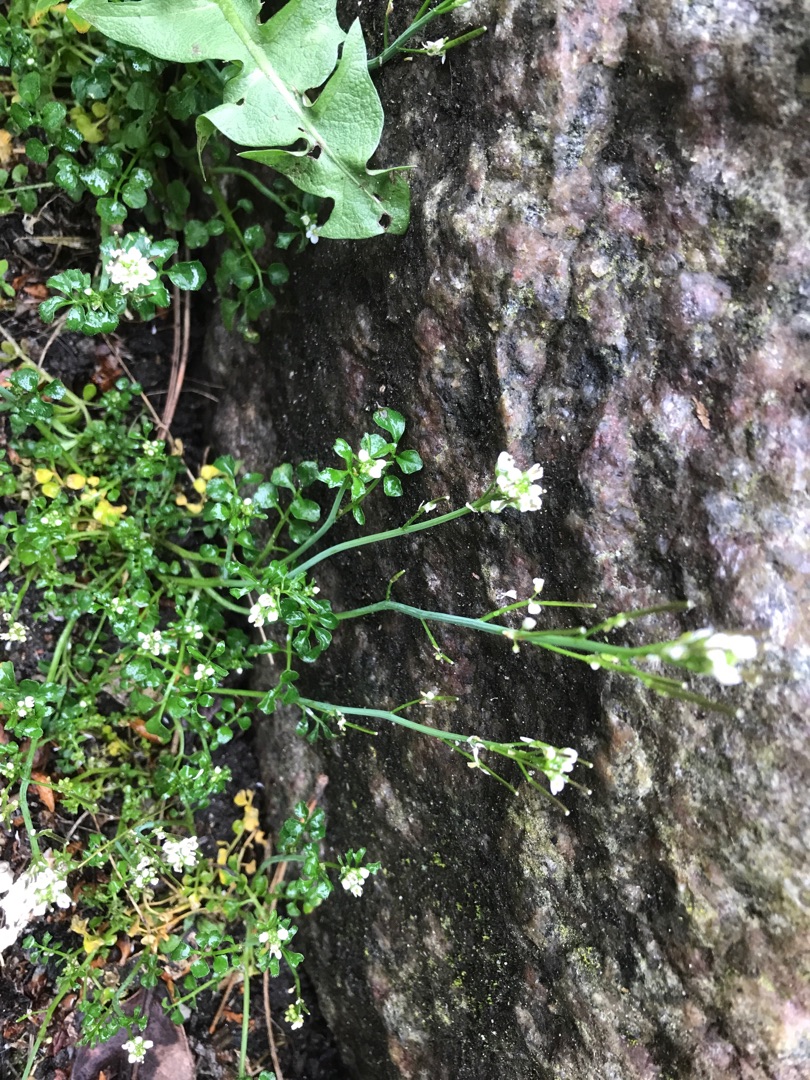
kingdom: Plantae
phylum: Tracheophyta
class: Magnoliopsida
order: Brassicales
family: Brassicaceae
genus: Cardamine
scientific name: Cardamine hirsuta
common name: Roset-springklap
